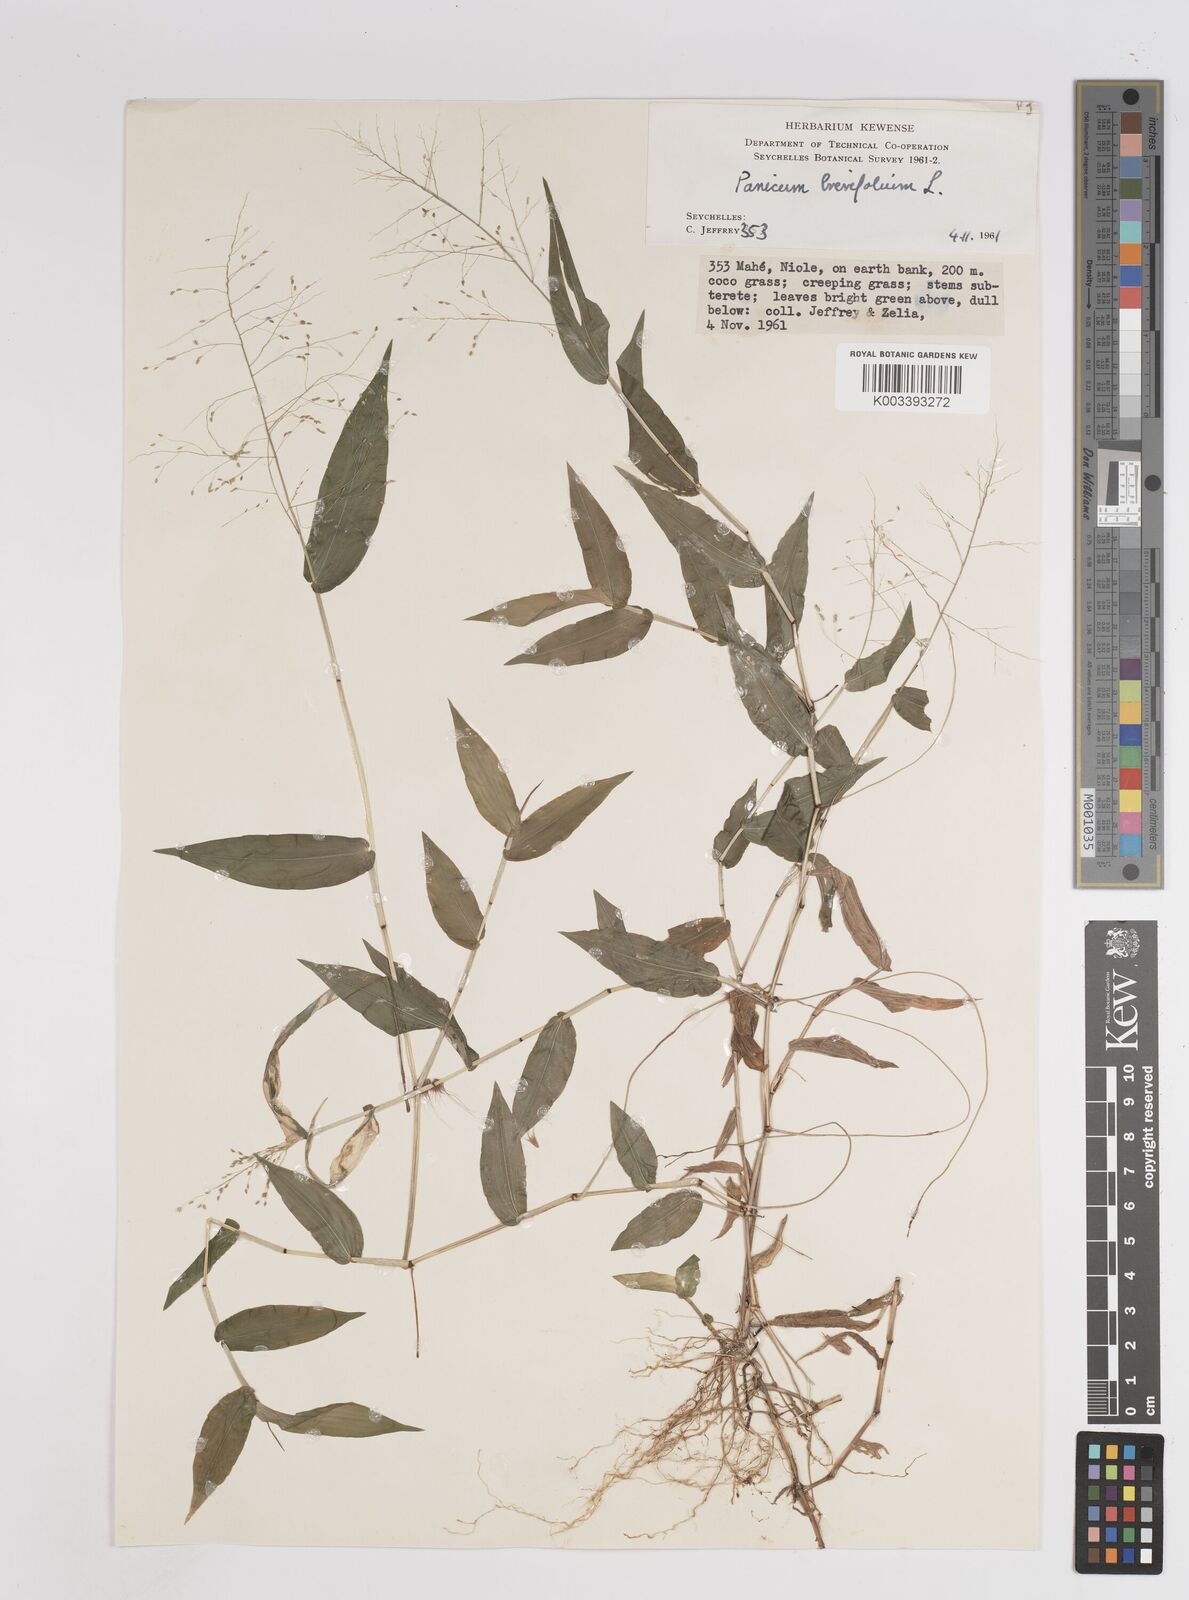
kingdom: Plantae
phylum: Tracheophyta
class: Liliopsida
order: Poales
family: Poaceae
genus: Panicum
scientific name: Panicum brevifolium
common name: Shortleaf panic grass
